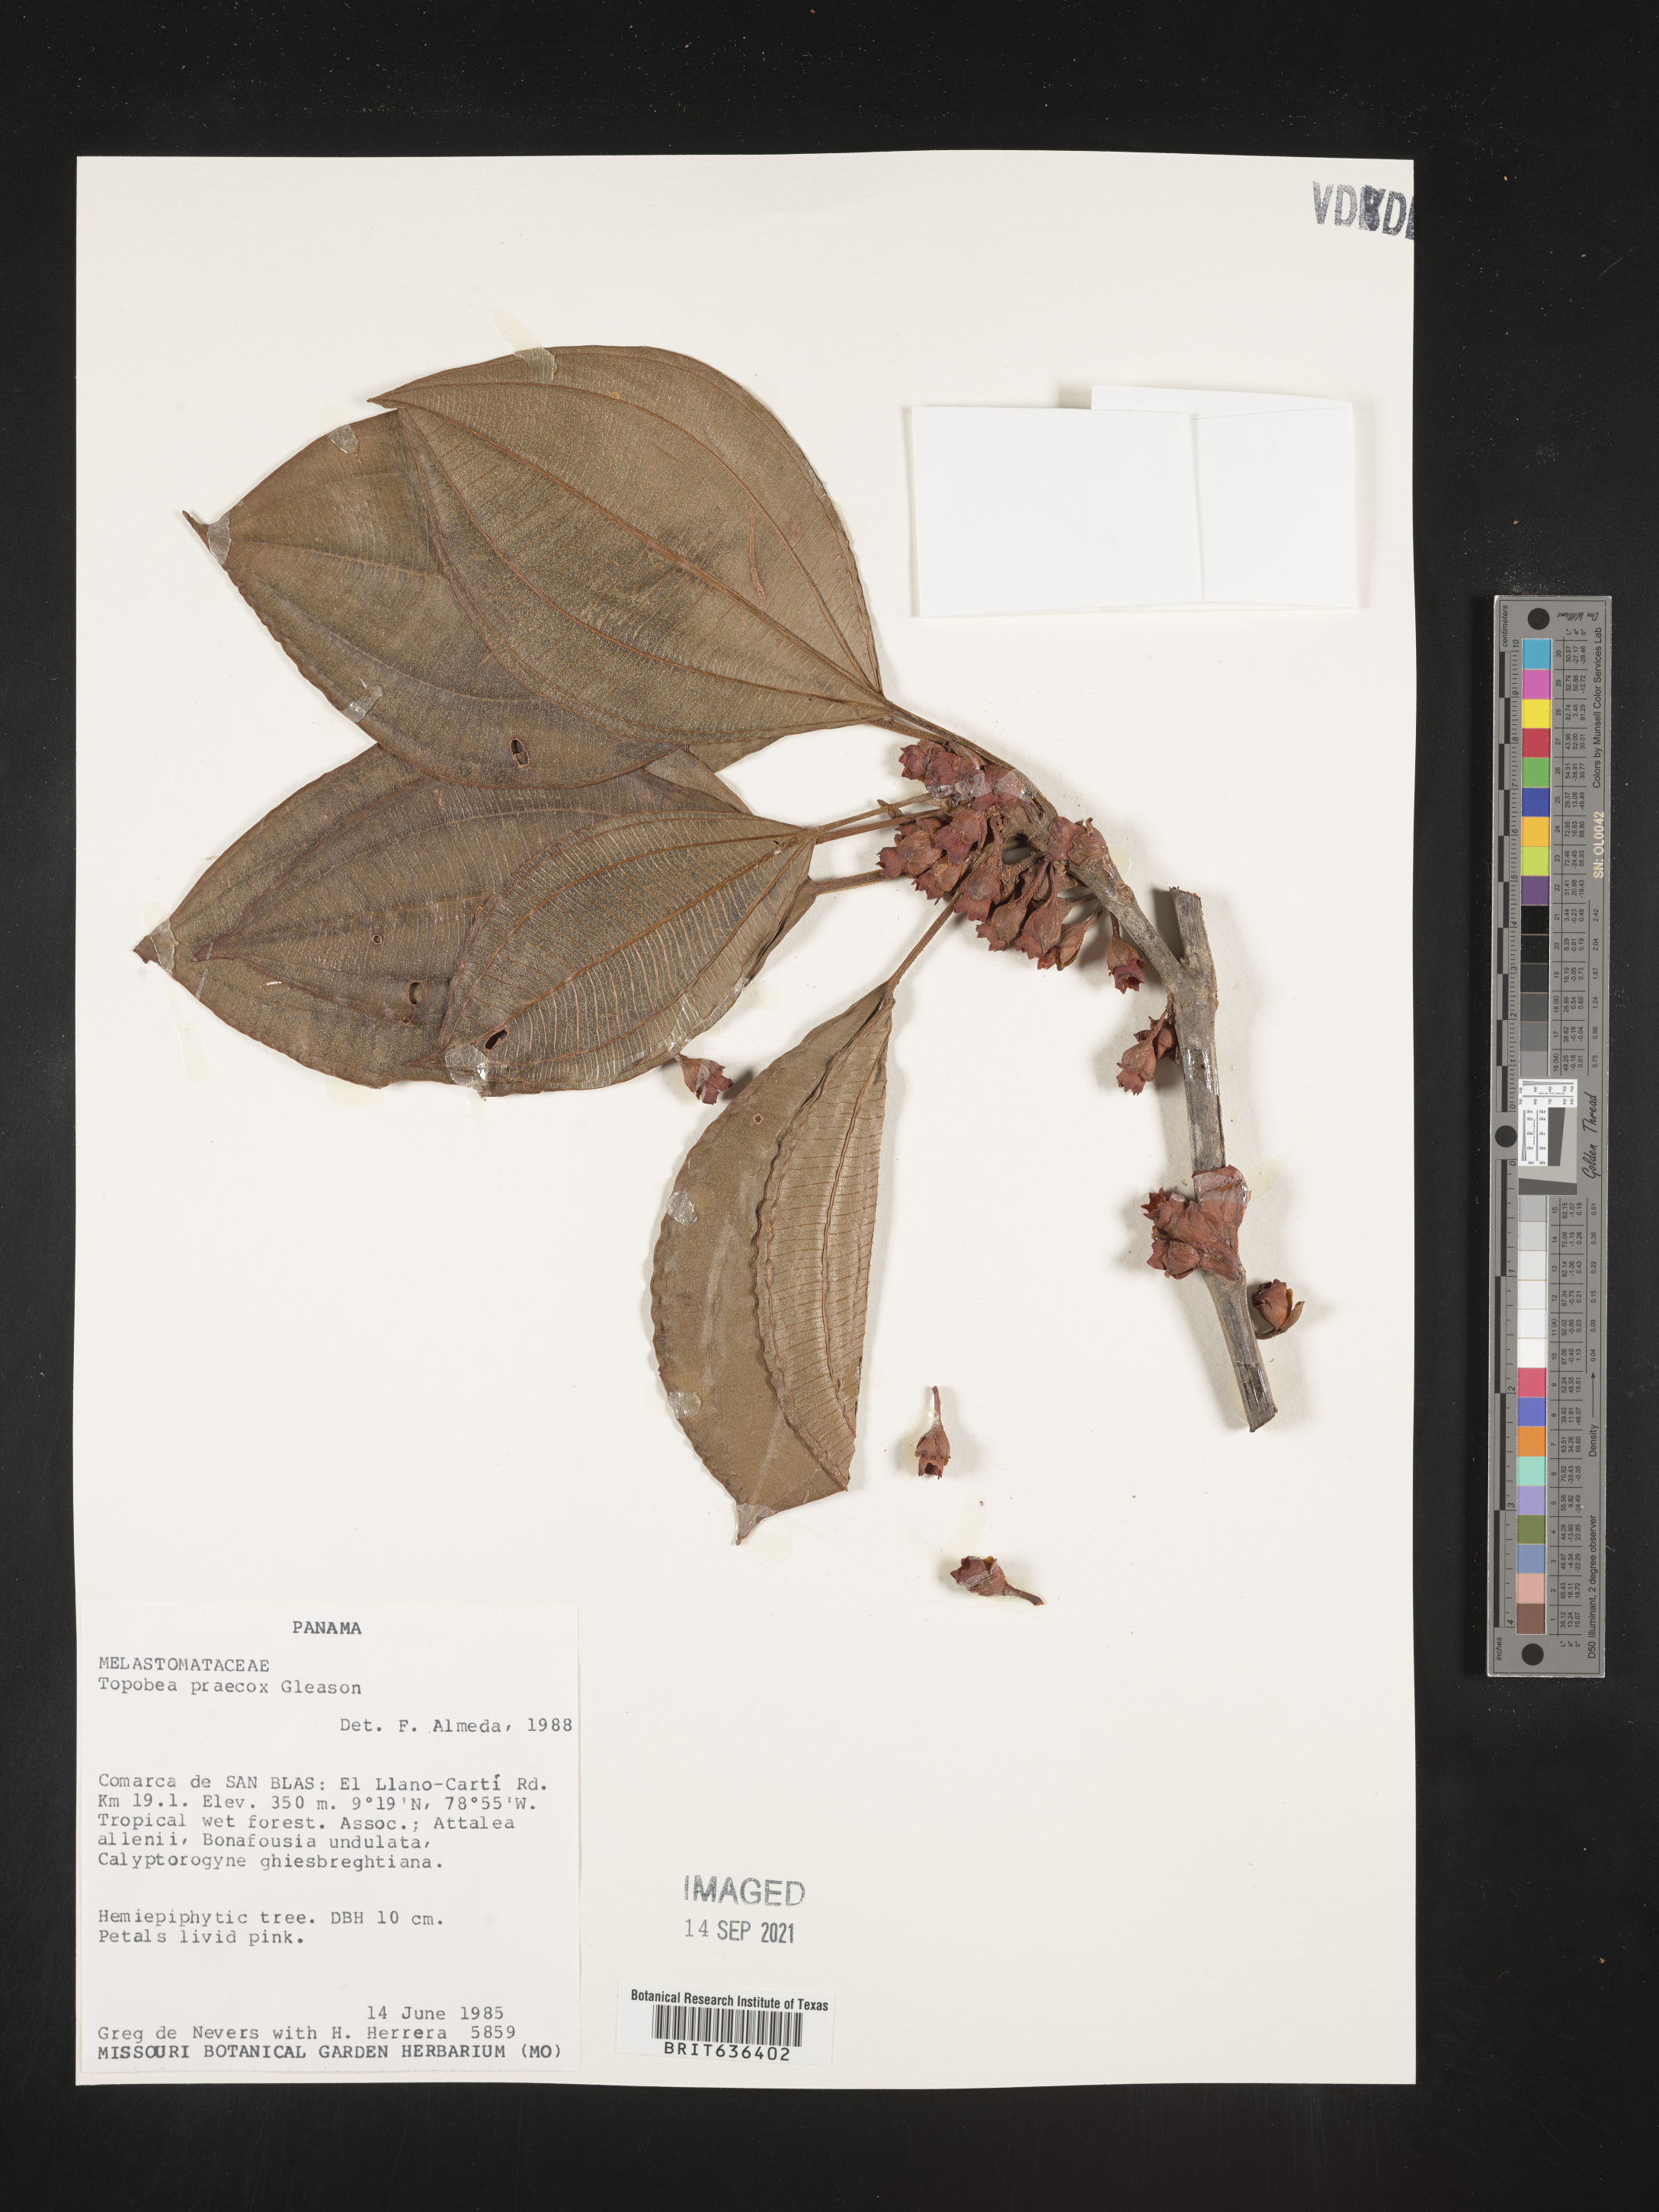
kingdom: Plantae
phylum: Tracheophyta
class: Magnoliopsida
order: Myrtales
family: Melastomataceae
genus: Blakea
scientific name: Blakea
